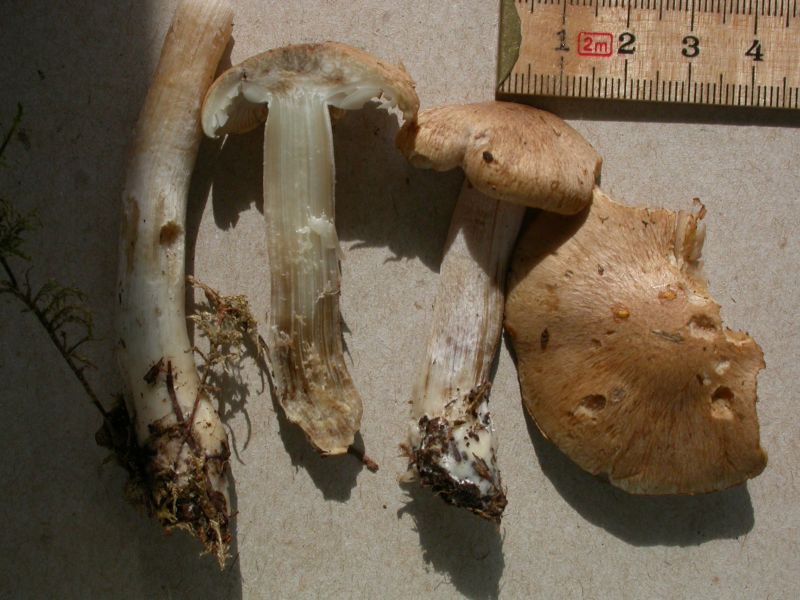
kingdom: Fungi
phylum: Basidiomycota
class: Agaricomycetes
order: Agaricales
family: Inocybaceae
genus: Inocybe
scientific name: Inocybe melanopoda
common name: sortfodet trævlhat
